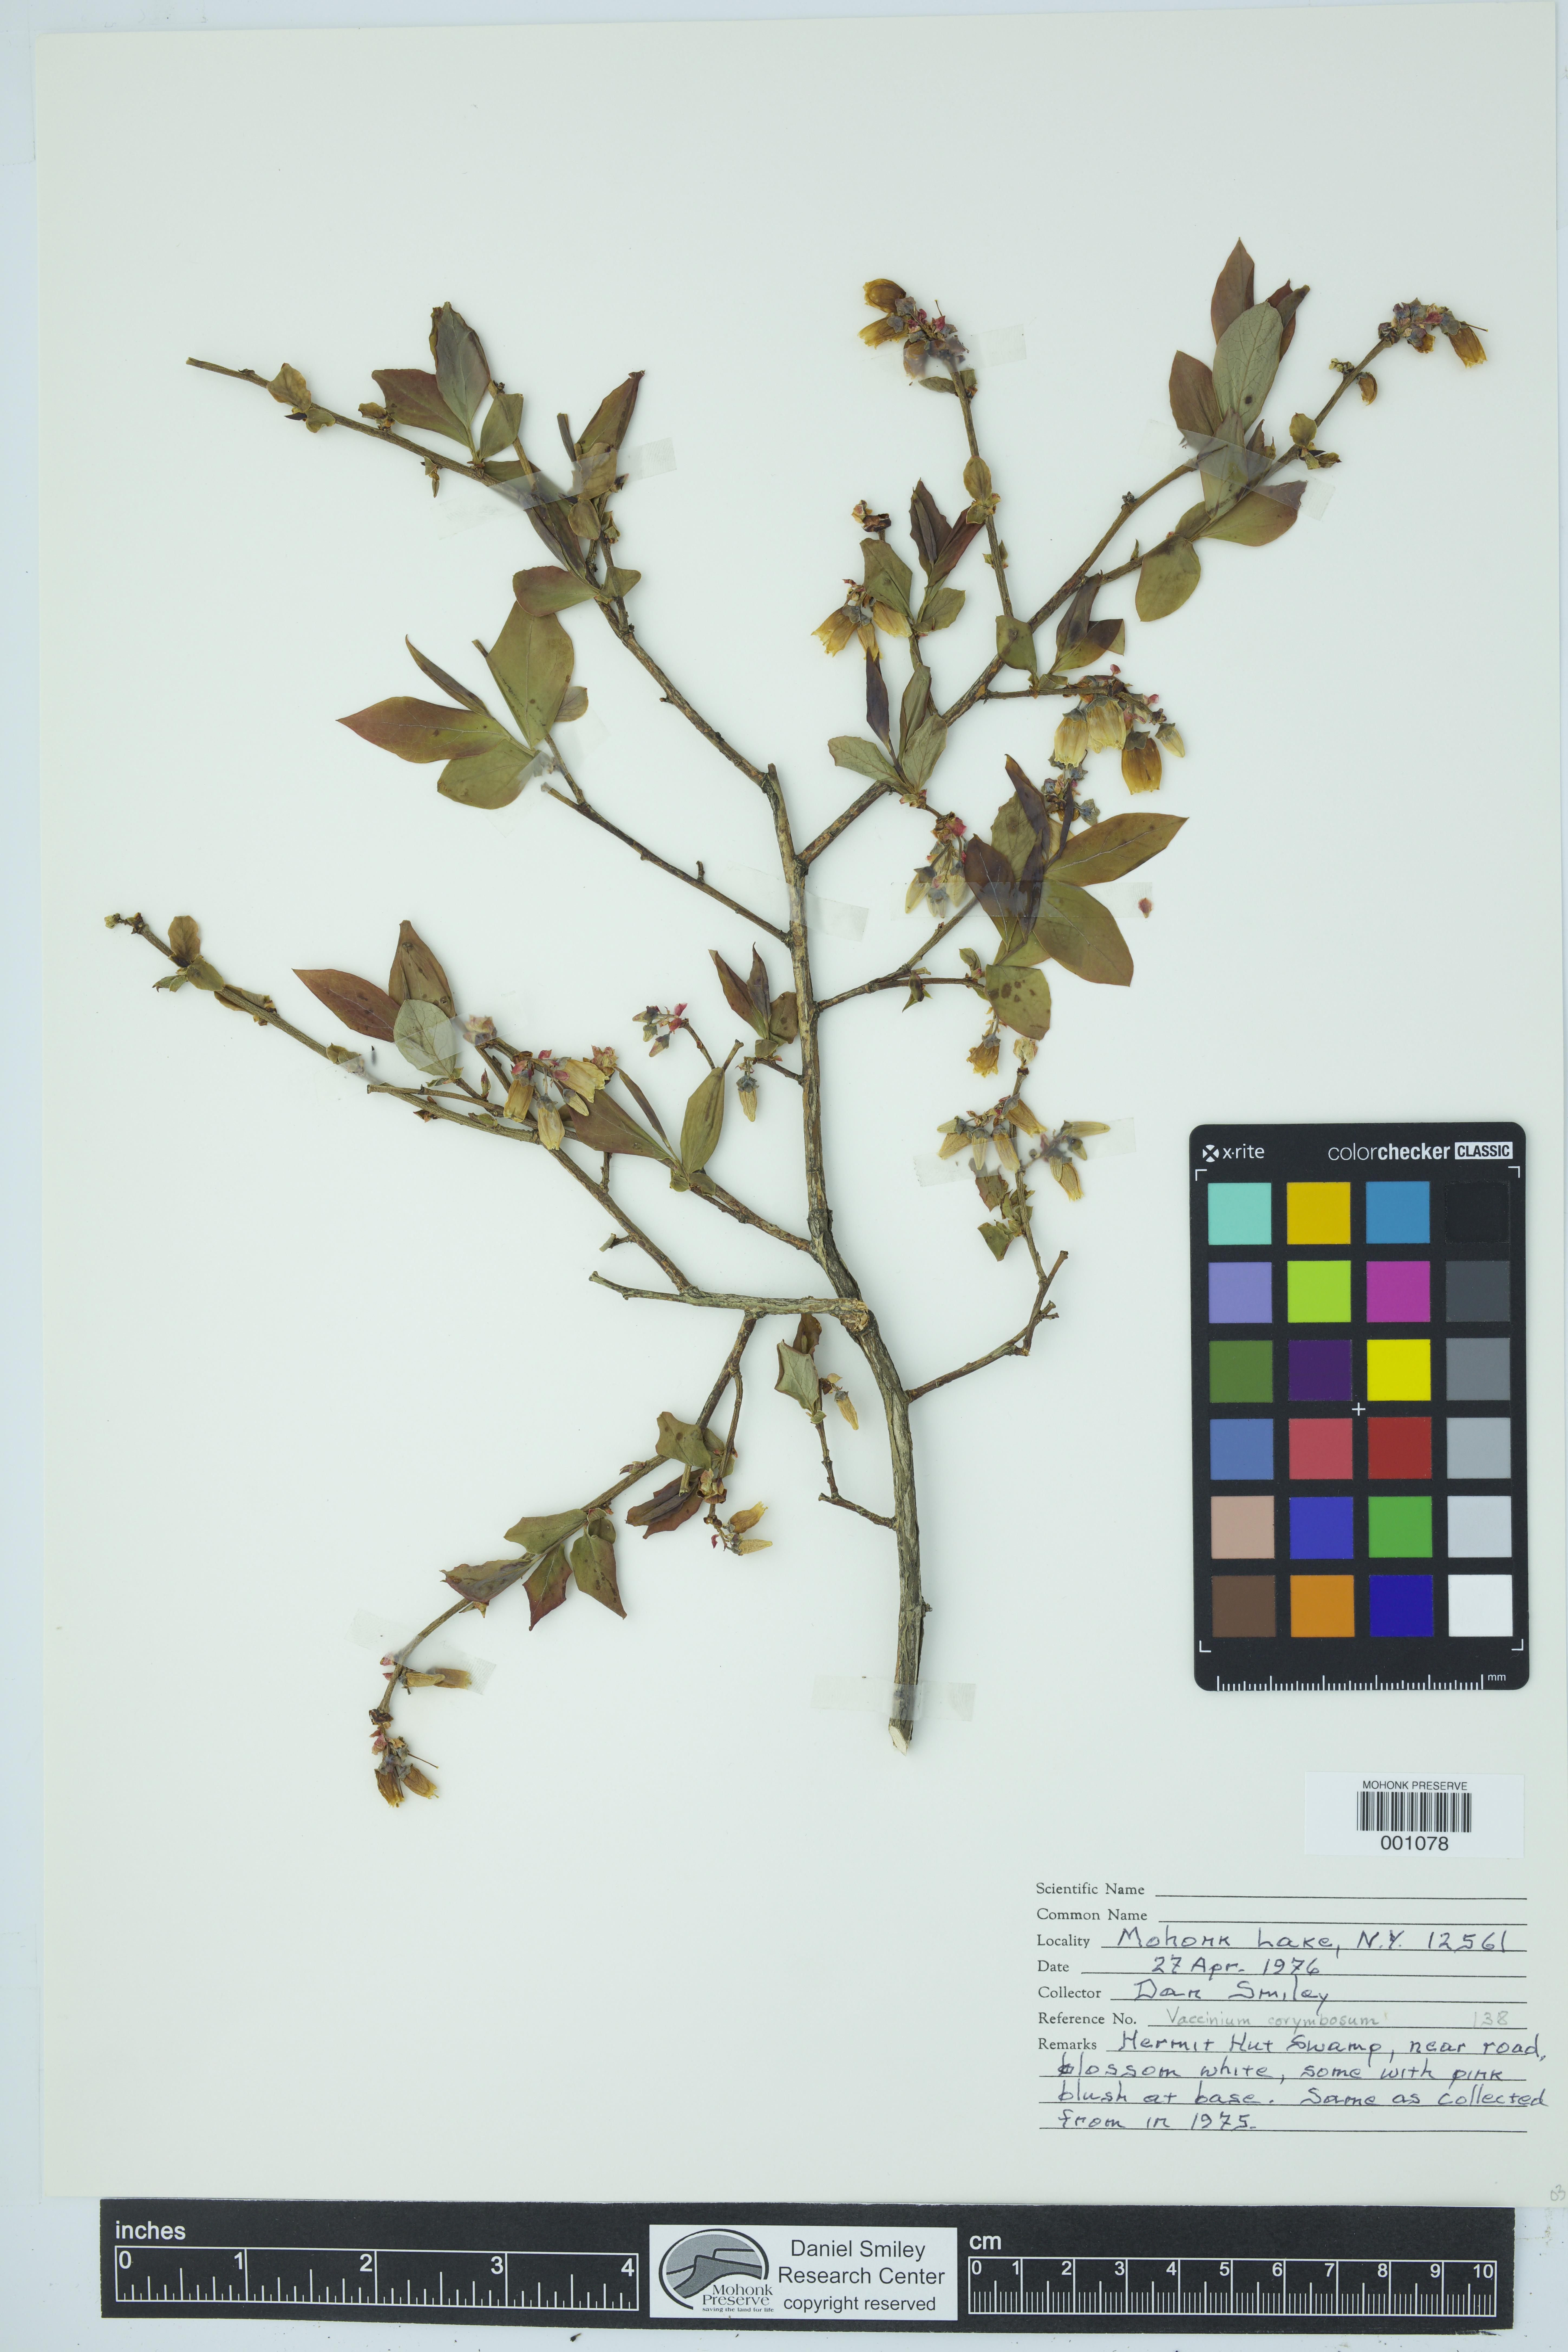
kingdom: Plantae
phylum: Tracheophyta
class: Magnoliopsida
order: Ericales
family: Ericaceae
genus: Vaccinium
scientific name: Vaccinium corymbosum
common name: Blueberry
